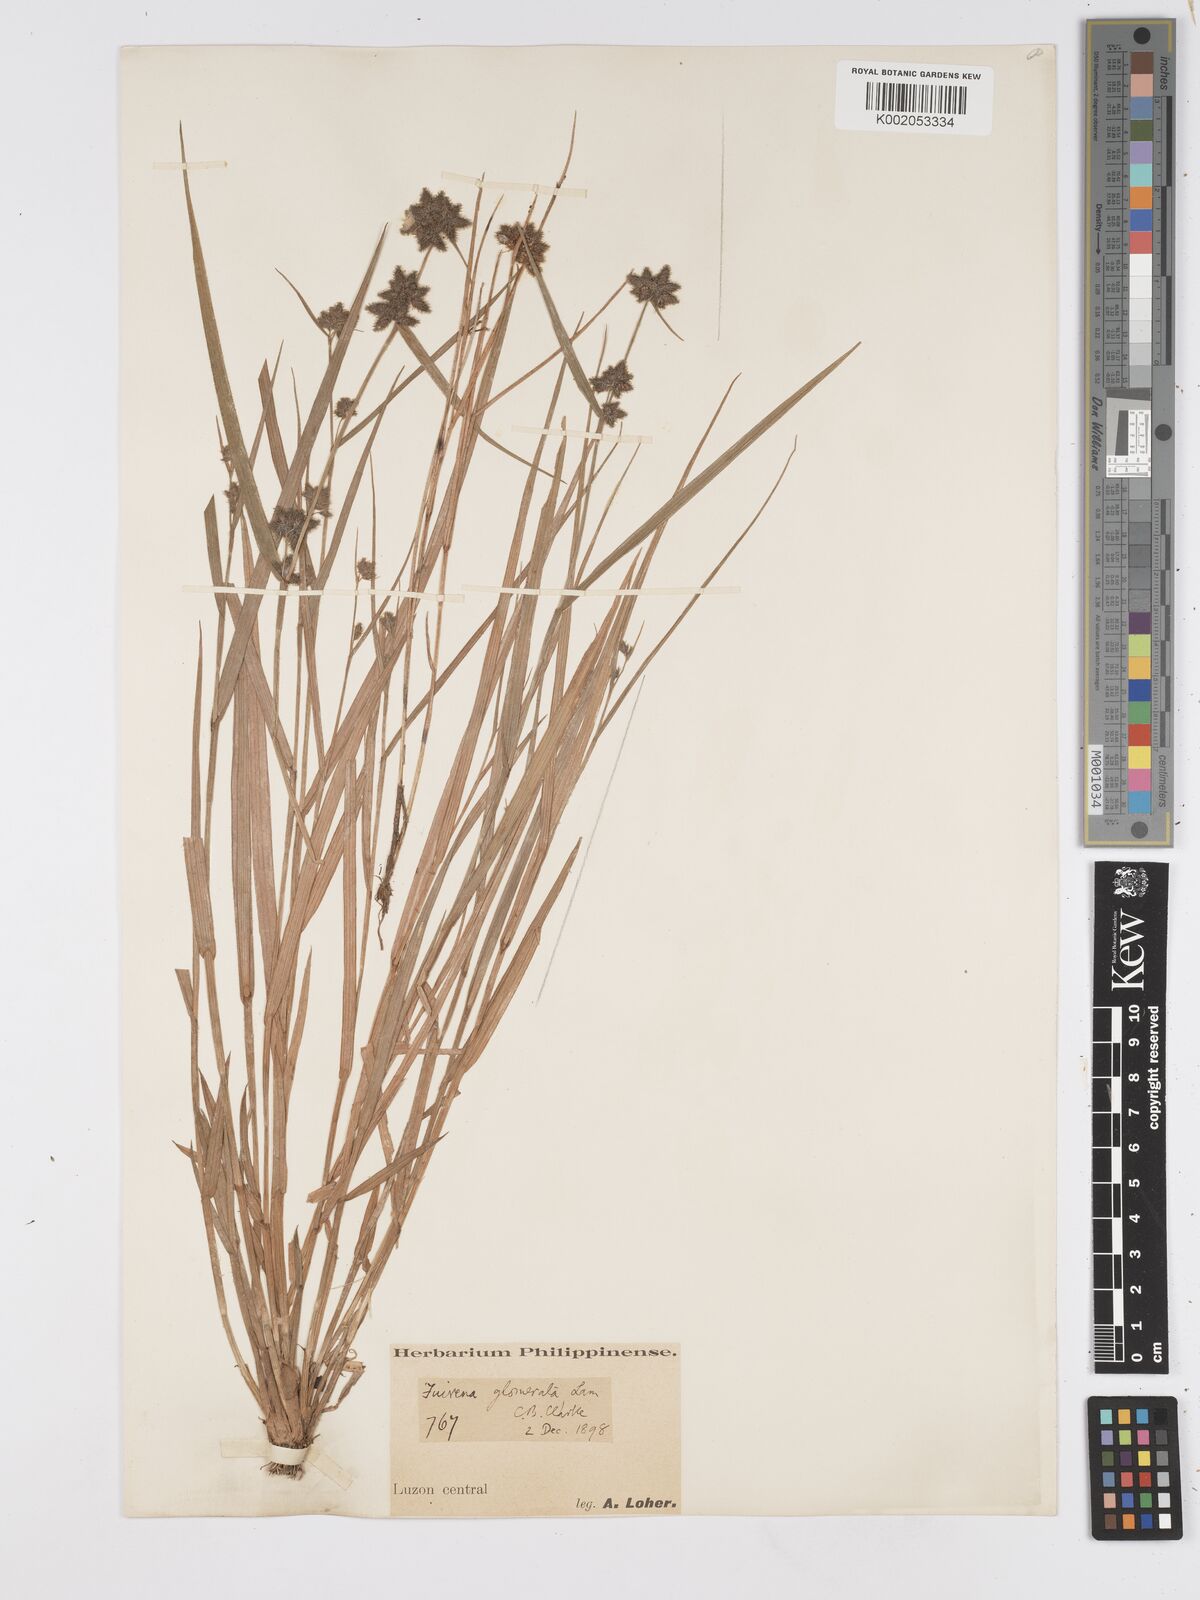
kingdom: Plantae
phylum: Tracheophyta
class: Liliopsida
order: Poales
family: Cyperaceae
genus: Fuirena
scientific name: Fuirena ciliaris
